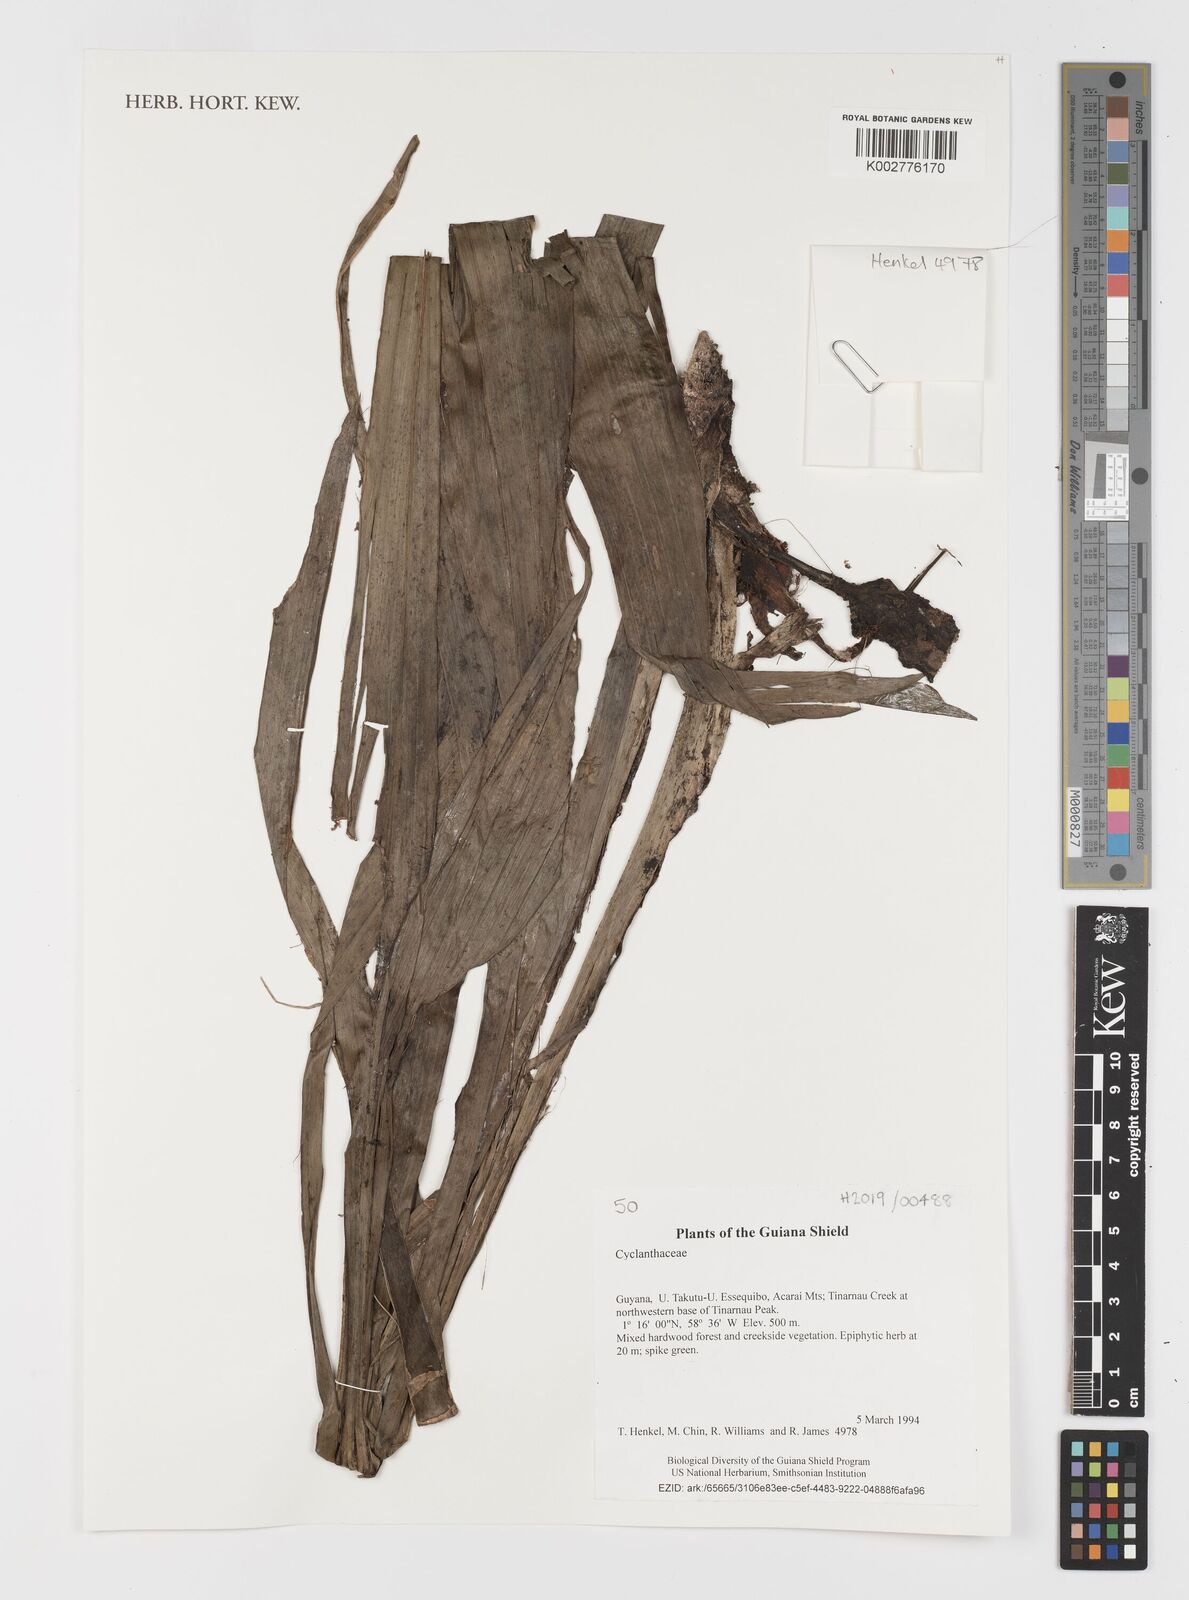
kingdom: Plantae
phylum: Tracheophyta
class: Liliopsida
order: Pandanales
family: Cyclanthaceae
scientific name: Cyclanthaceae
